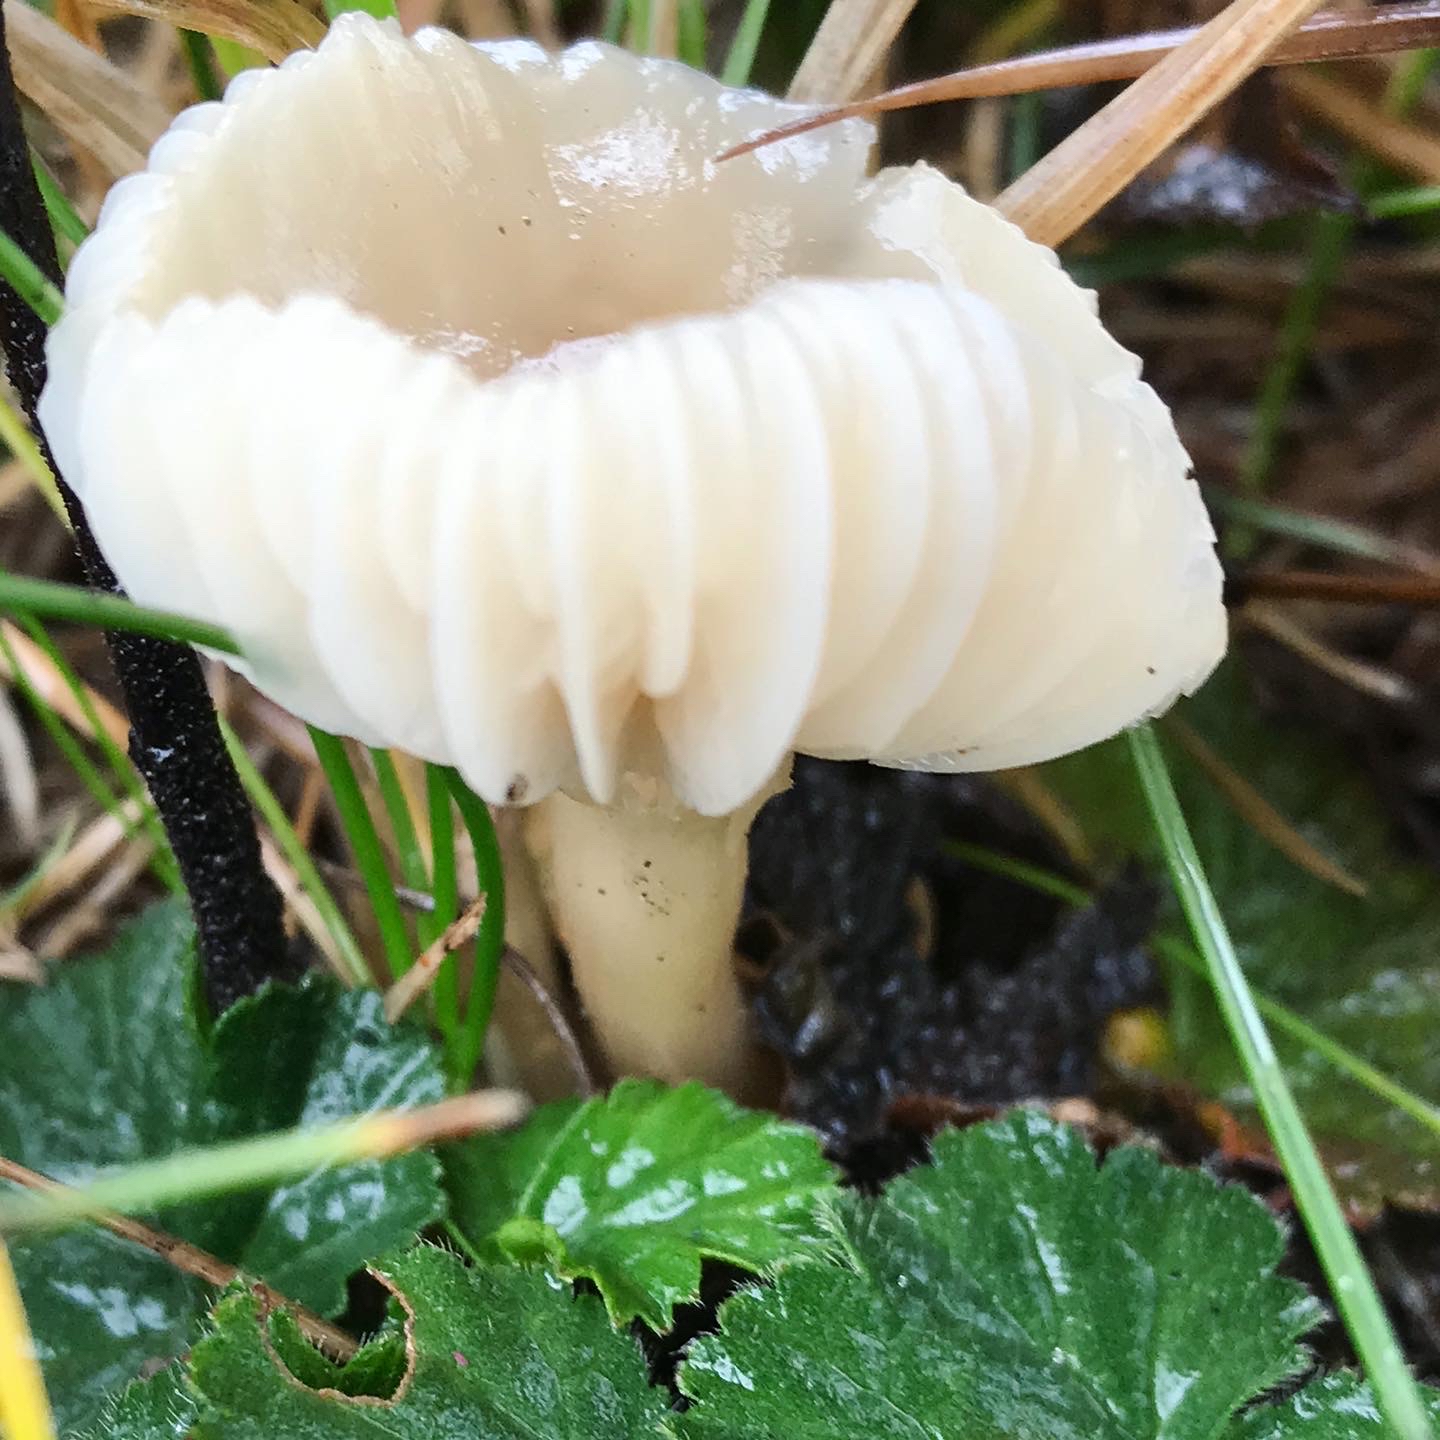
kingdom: Fungi
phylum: Basidiomycota
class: Agaricomycetes
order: Agaricales
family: Hygrophoraceae
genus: Cuphophyllus
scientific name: Cuphophyllus russocoriaceus
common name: ruslæder-vokshat
